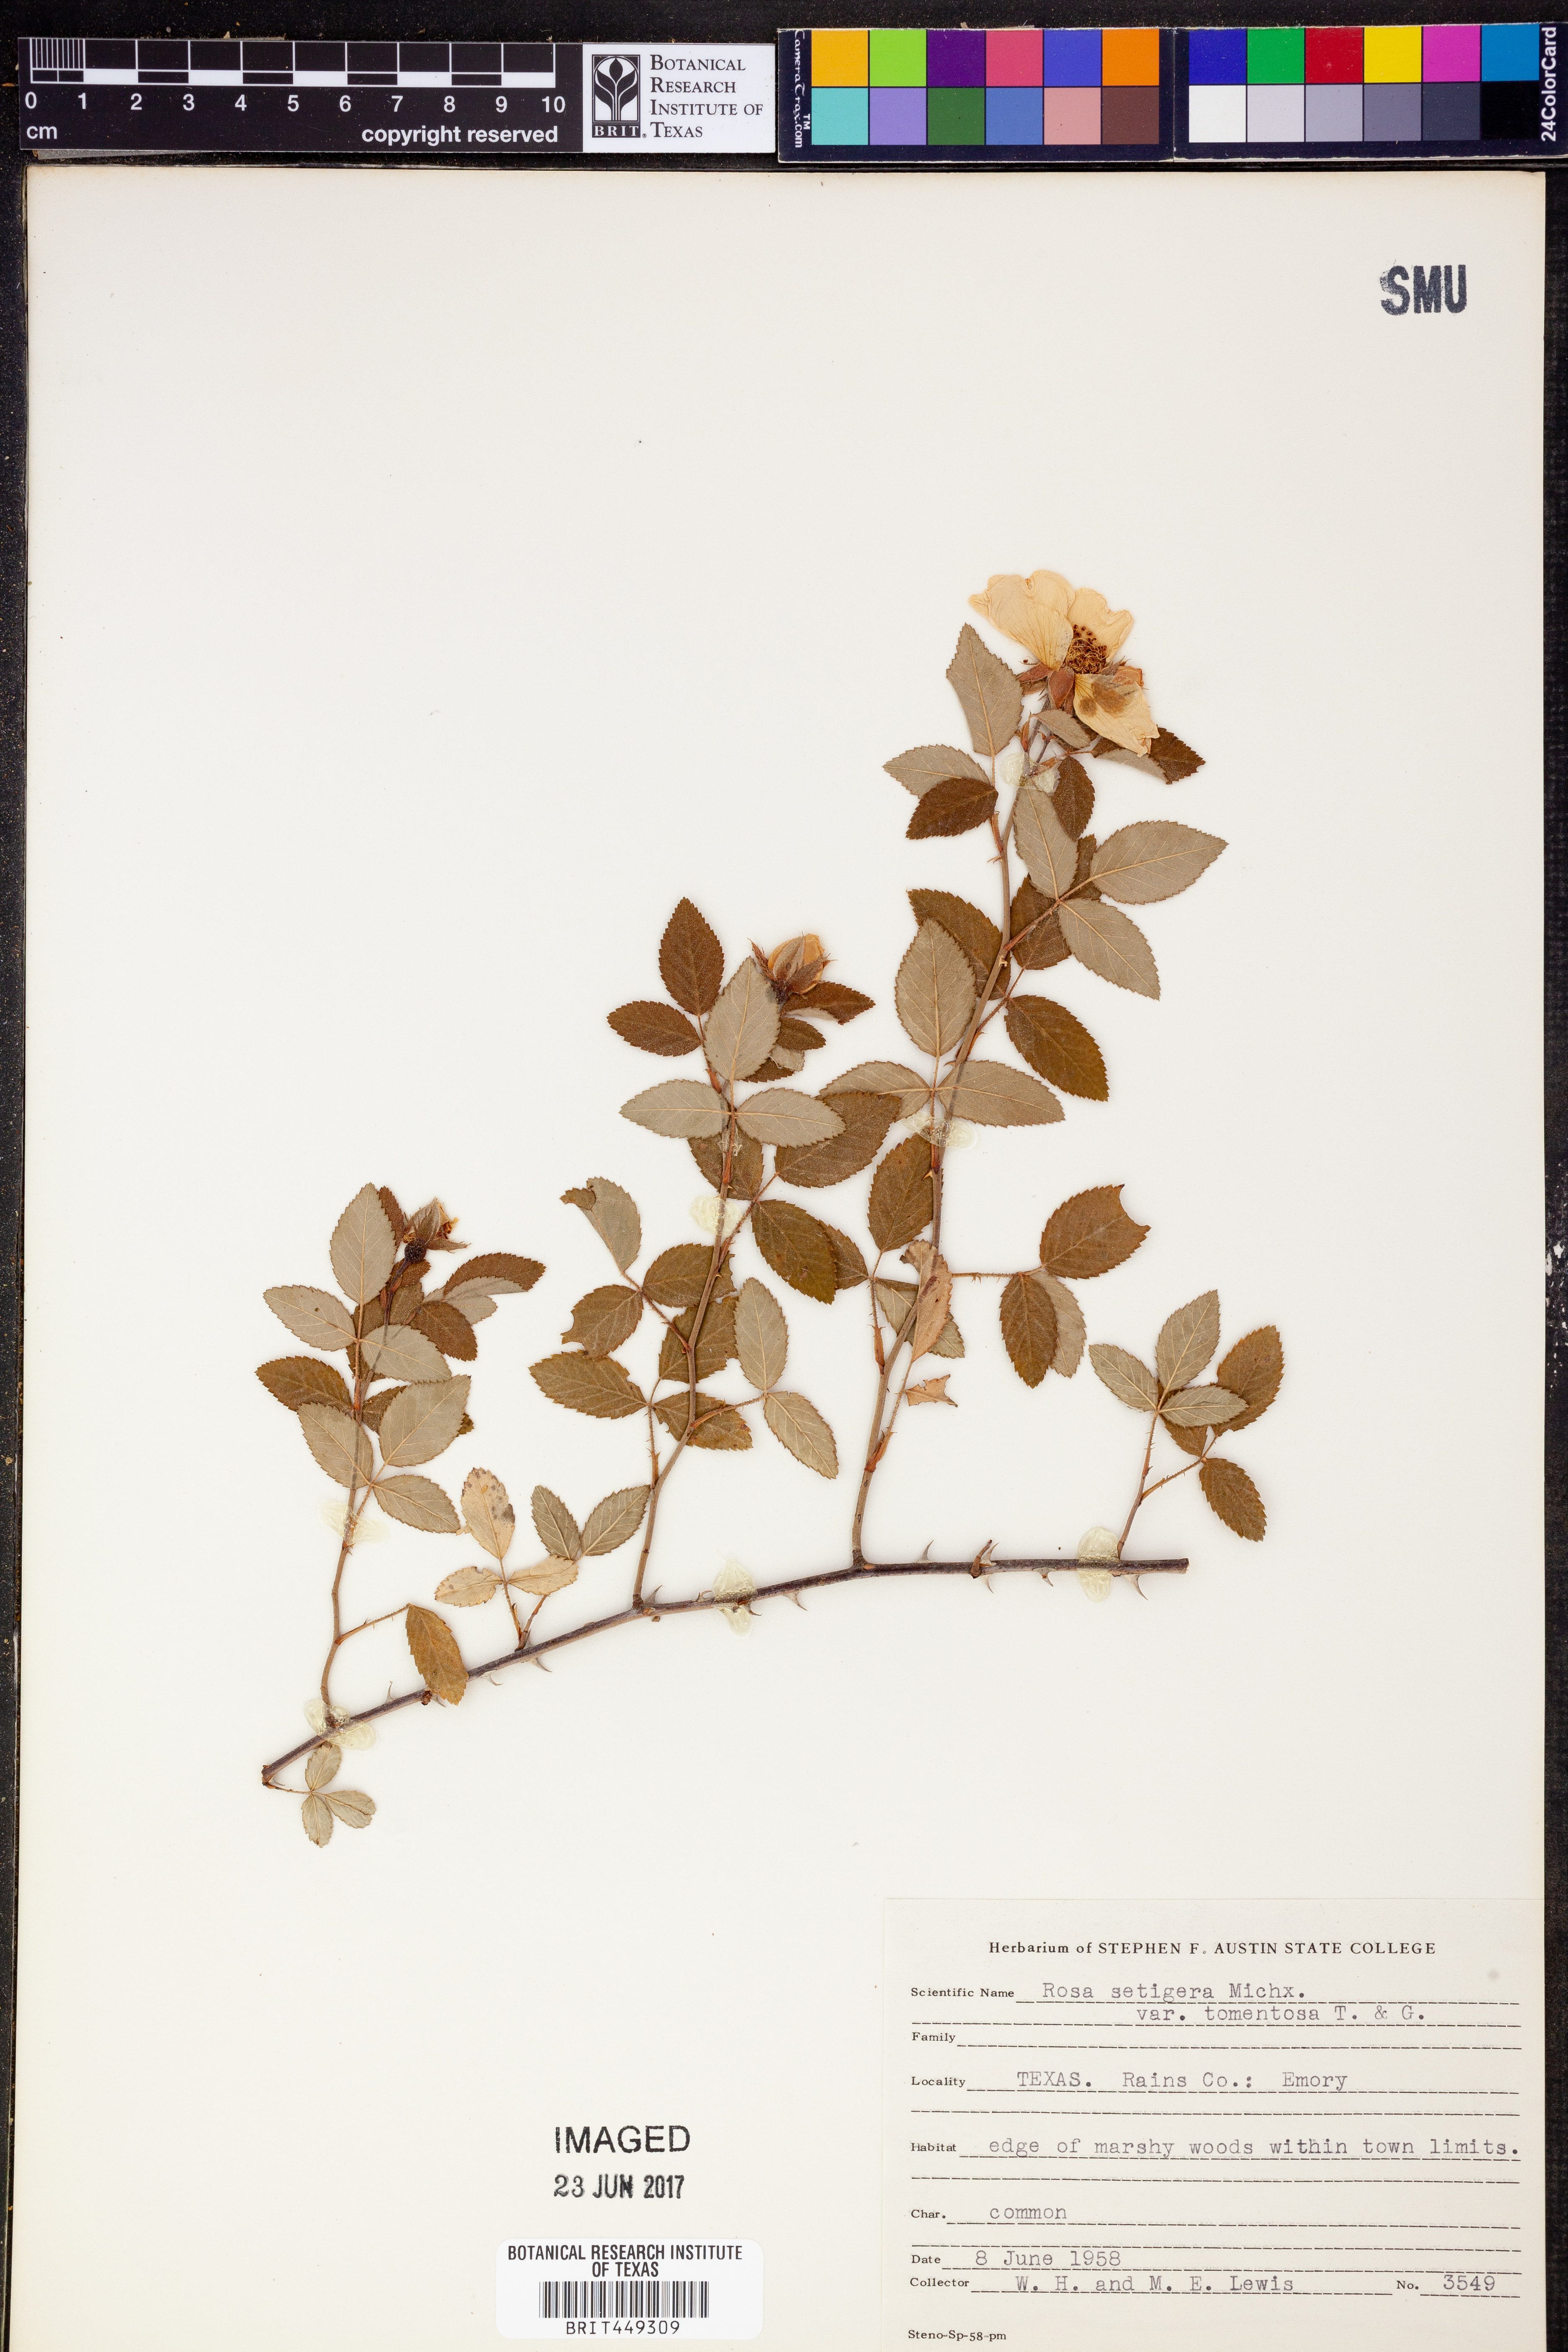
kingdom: Plantae
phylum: Tracheophyta
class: Magnoliopsida
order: Rosales
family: Rosaceae
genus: Rosa
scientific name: Rosa setigera
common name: Prairie rose
